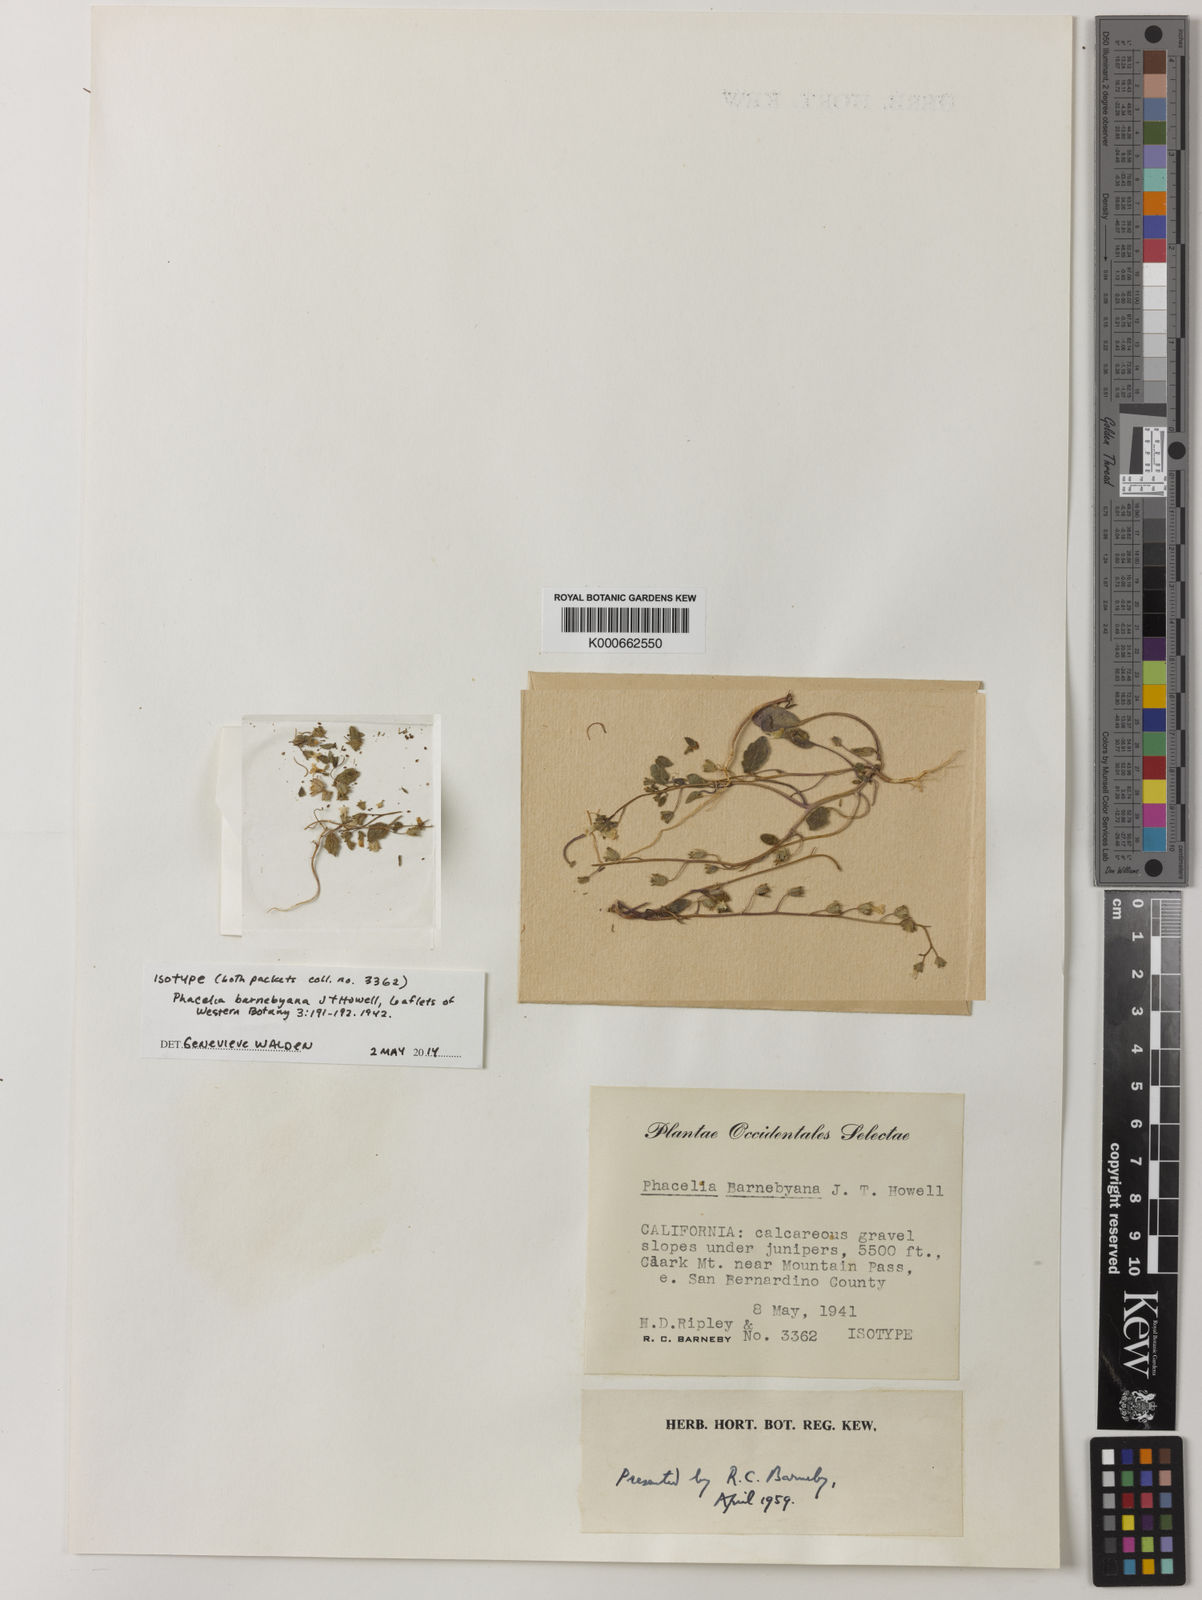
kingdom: Plantae
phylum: Tracheophyta
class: Magnoliopsida
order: Boraginales
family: Hydrophyllaceae
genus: Phacelia
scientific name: Phacelia barnebyana
